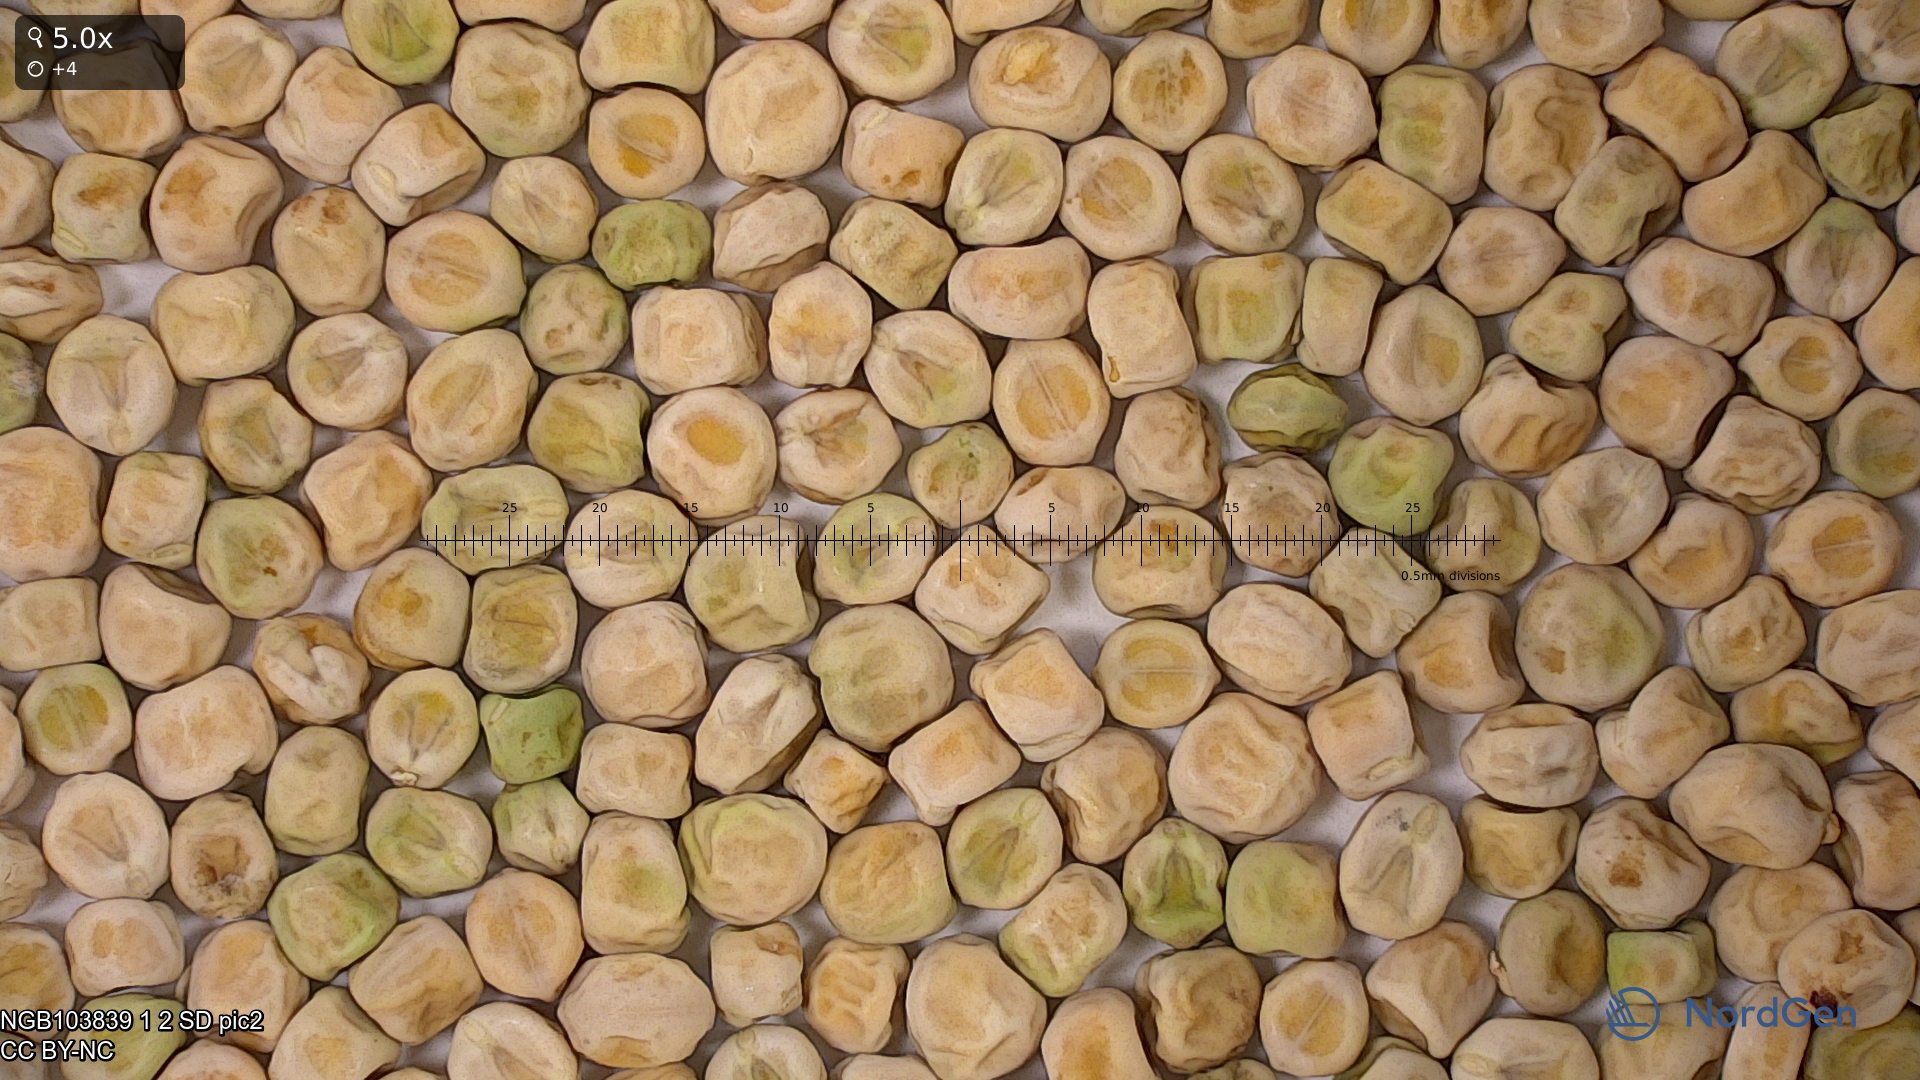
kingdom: Plantae
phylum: Tracheophyta
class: Magnoliopsida
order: Fabales
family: Fabaceae
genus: Lathyrus
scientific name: Lathyrus oleraceus
